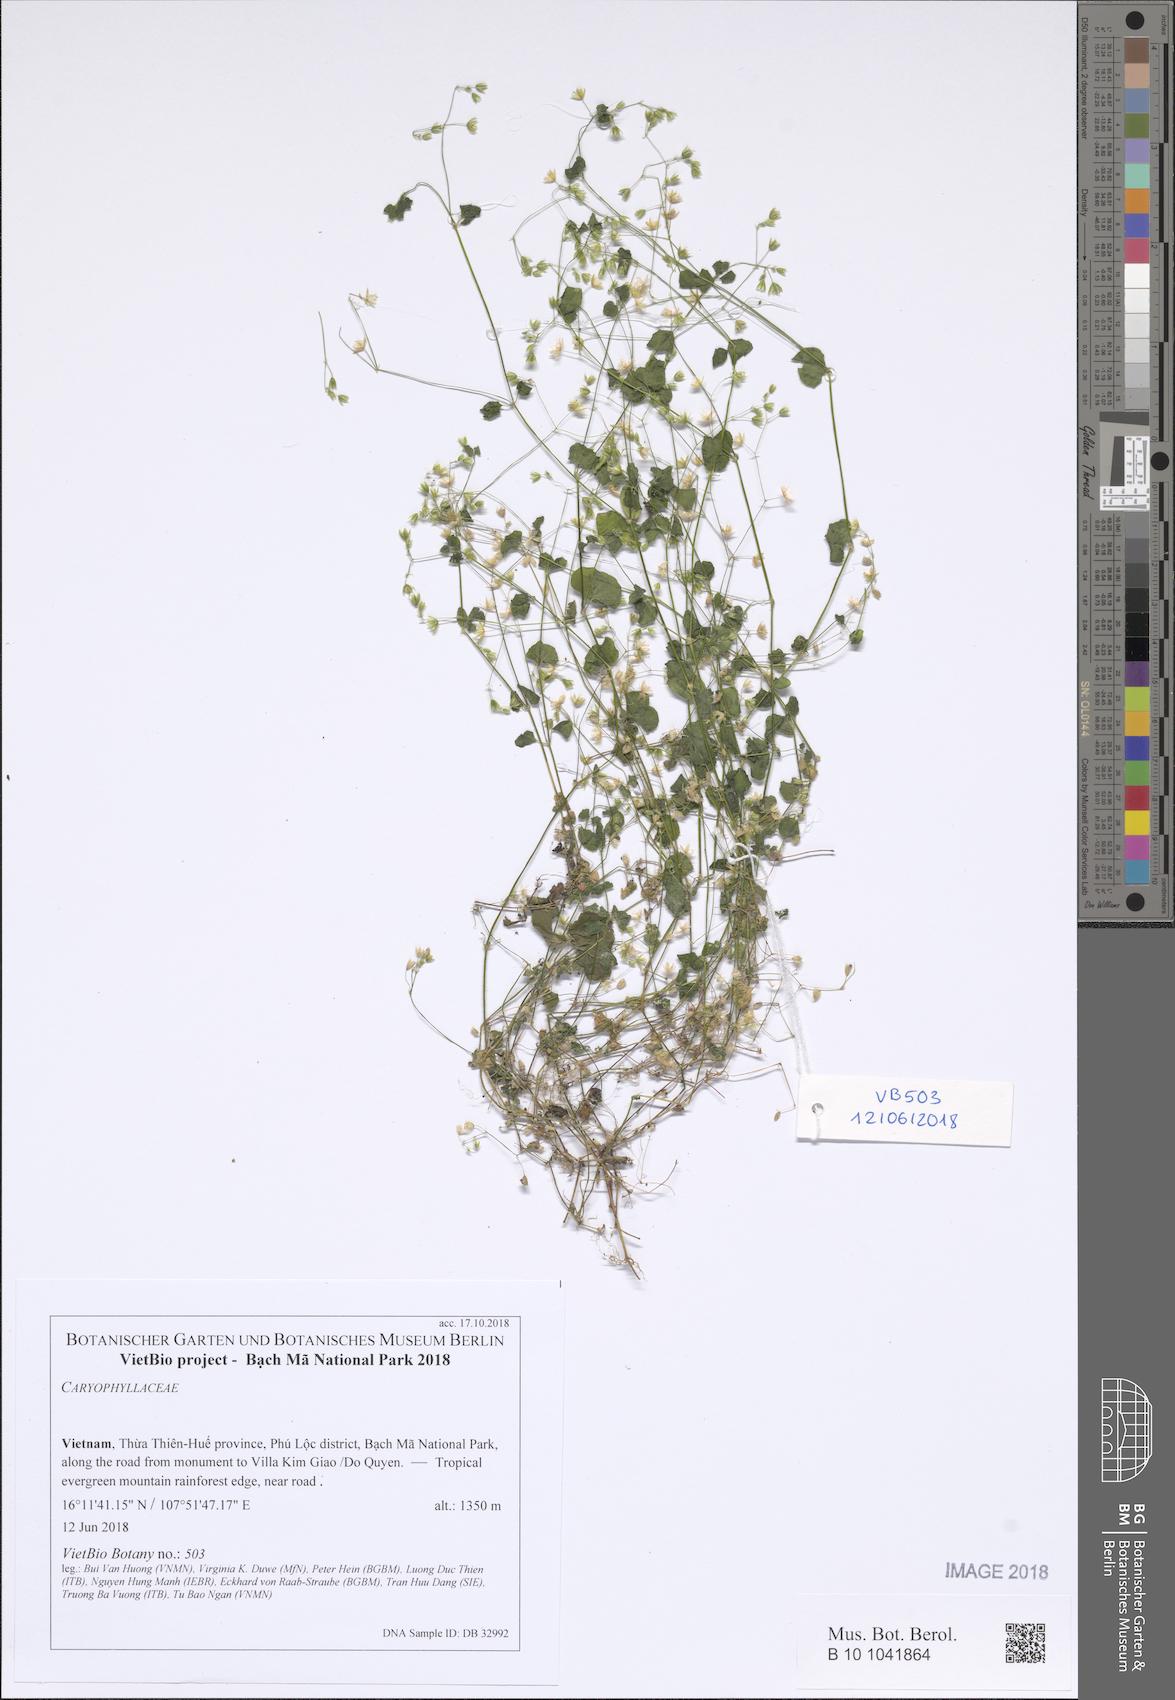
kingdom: Plantae
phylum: Tracheophyta
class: Magnoliopsida
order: Caryophyllales
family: Caryophyllaceae
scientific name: Caryophyllaceae
